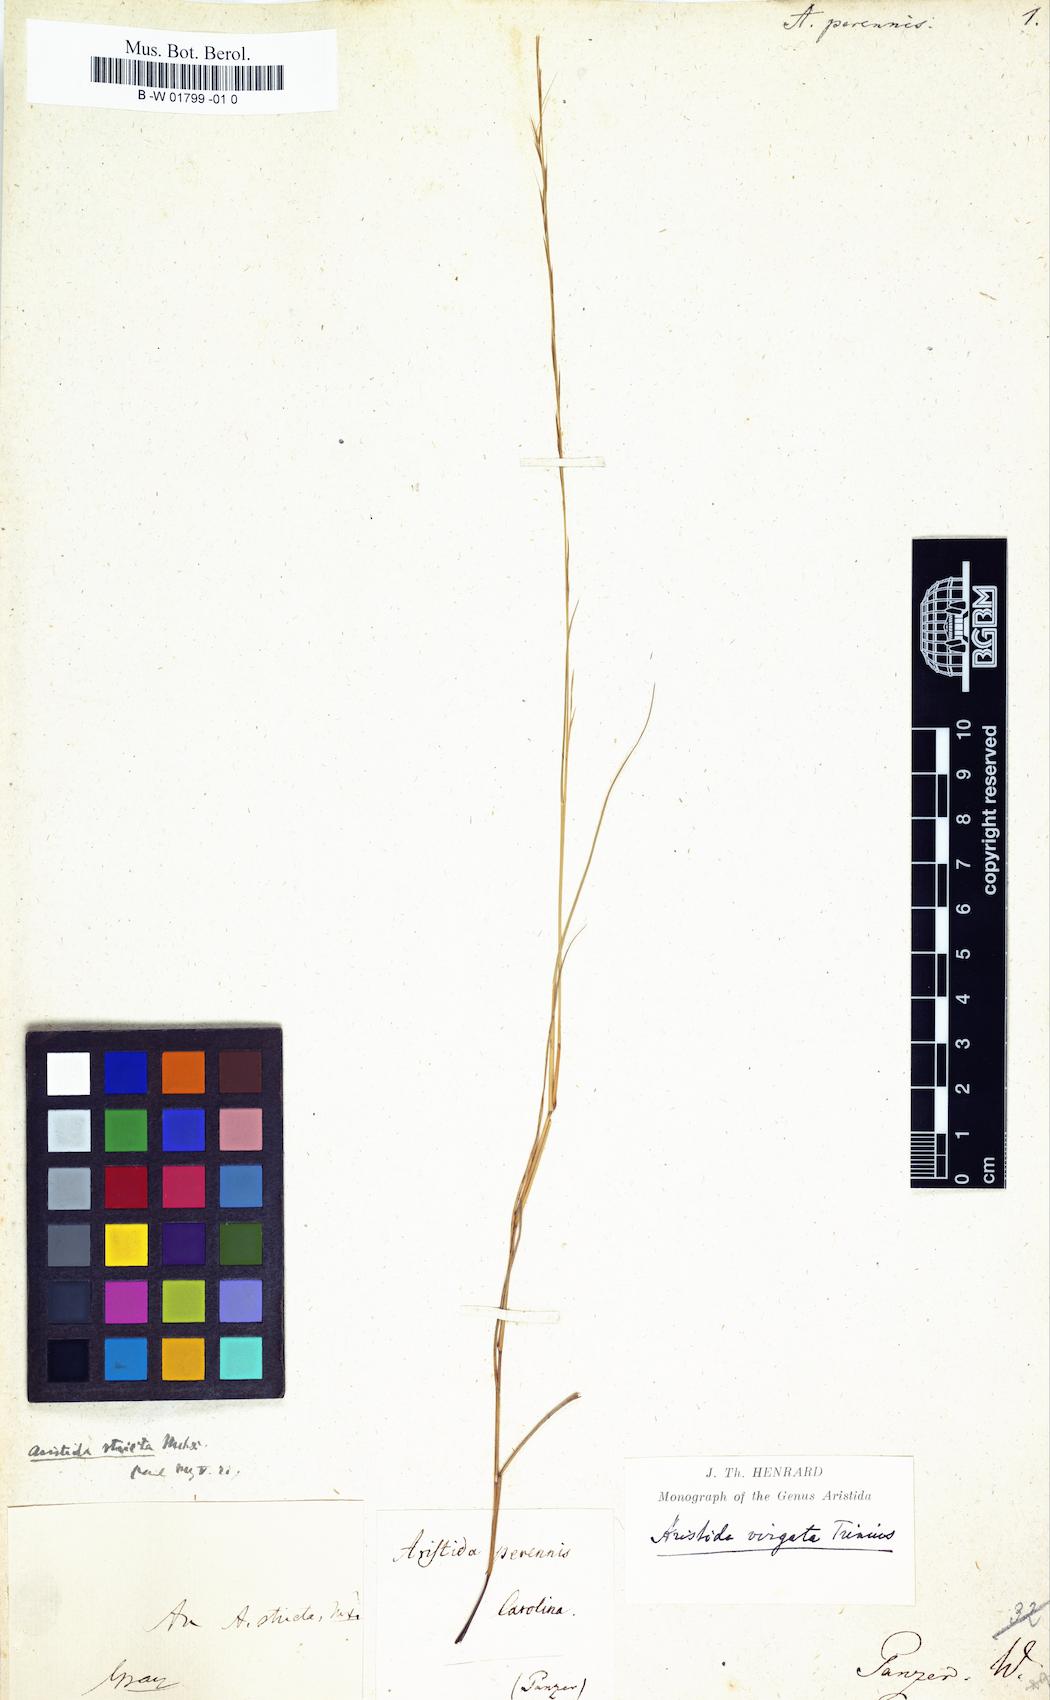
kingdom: Plantae
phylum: Tracheophyta
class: Liliopsida
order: Poales
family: Poaceae
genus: Aristida
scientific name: Aristida virgata
